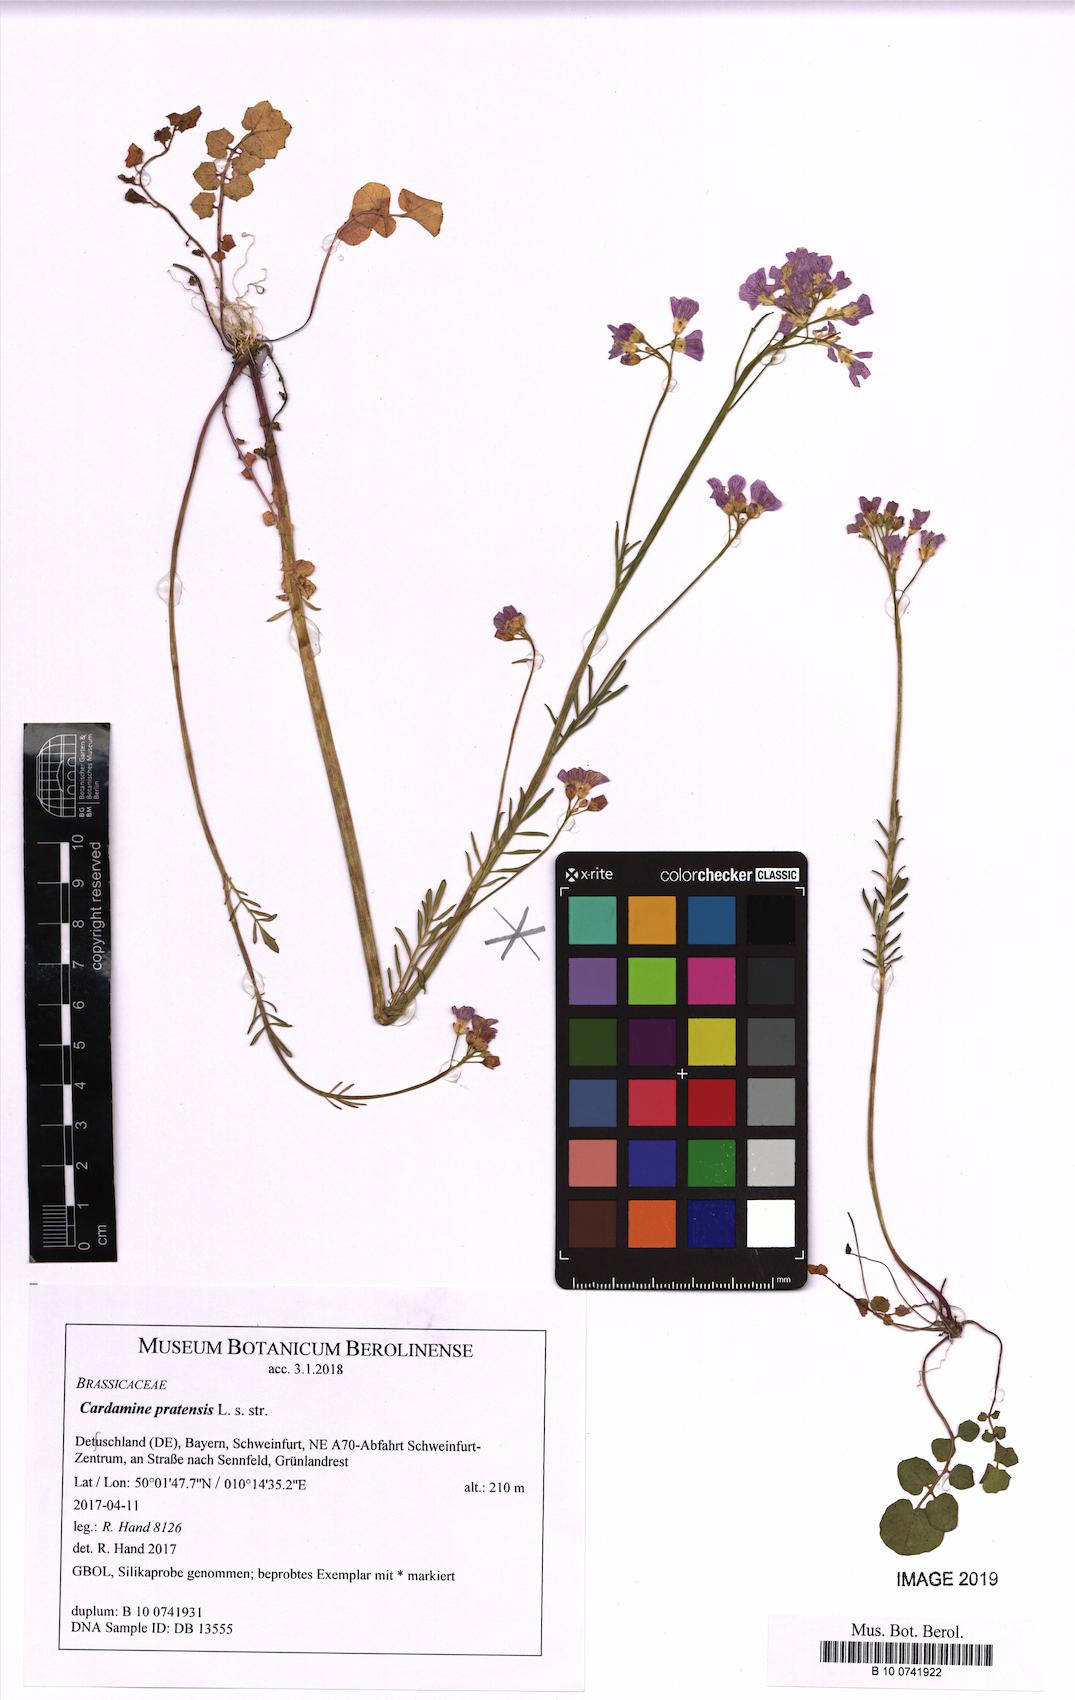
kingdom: Plantae
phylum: Tracheophyta
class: Magnoliopsida
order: Brassicales
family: Brassicaceae
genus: Cardamine
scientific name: Cardamine pratensis
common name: Cuckoo flower
